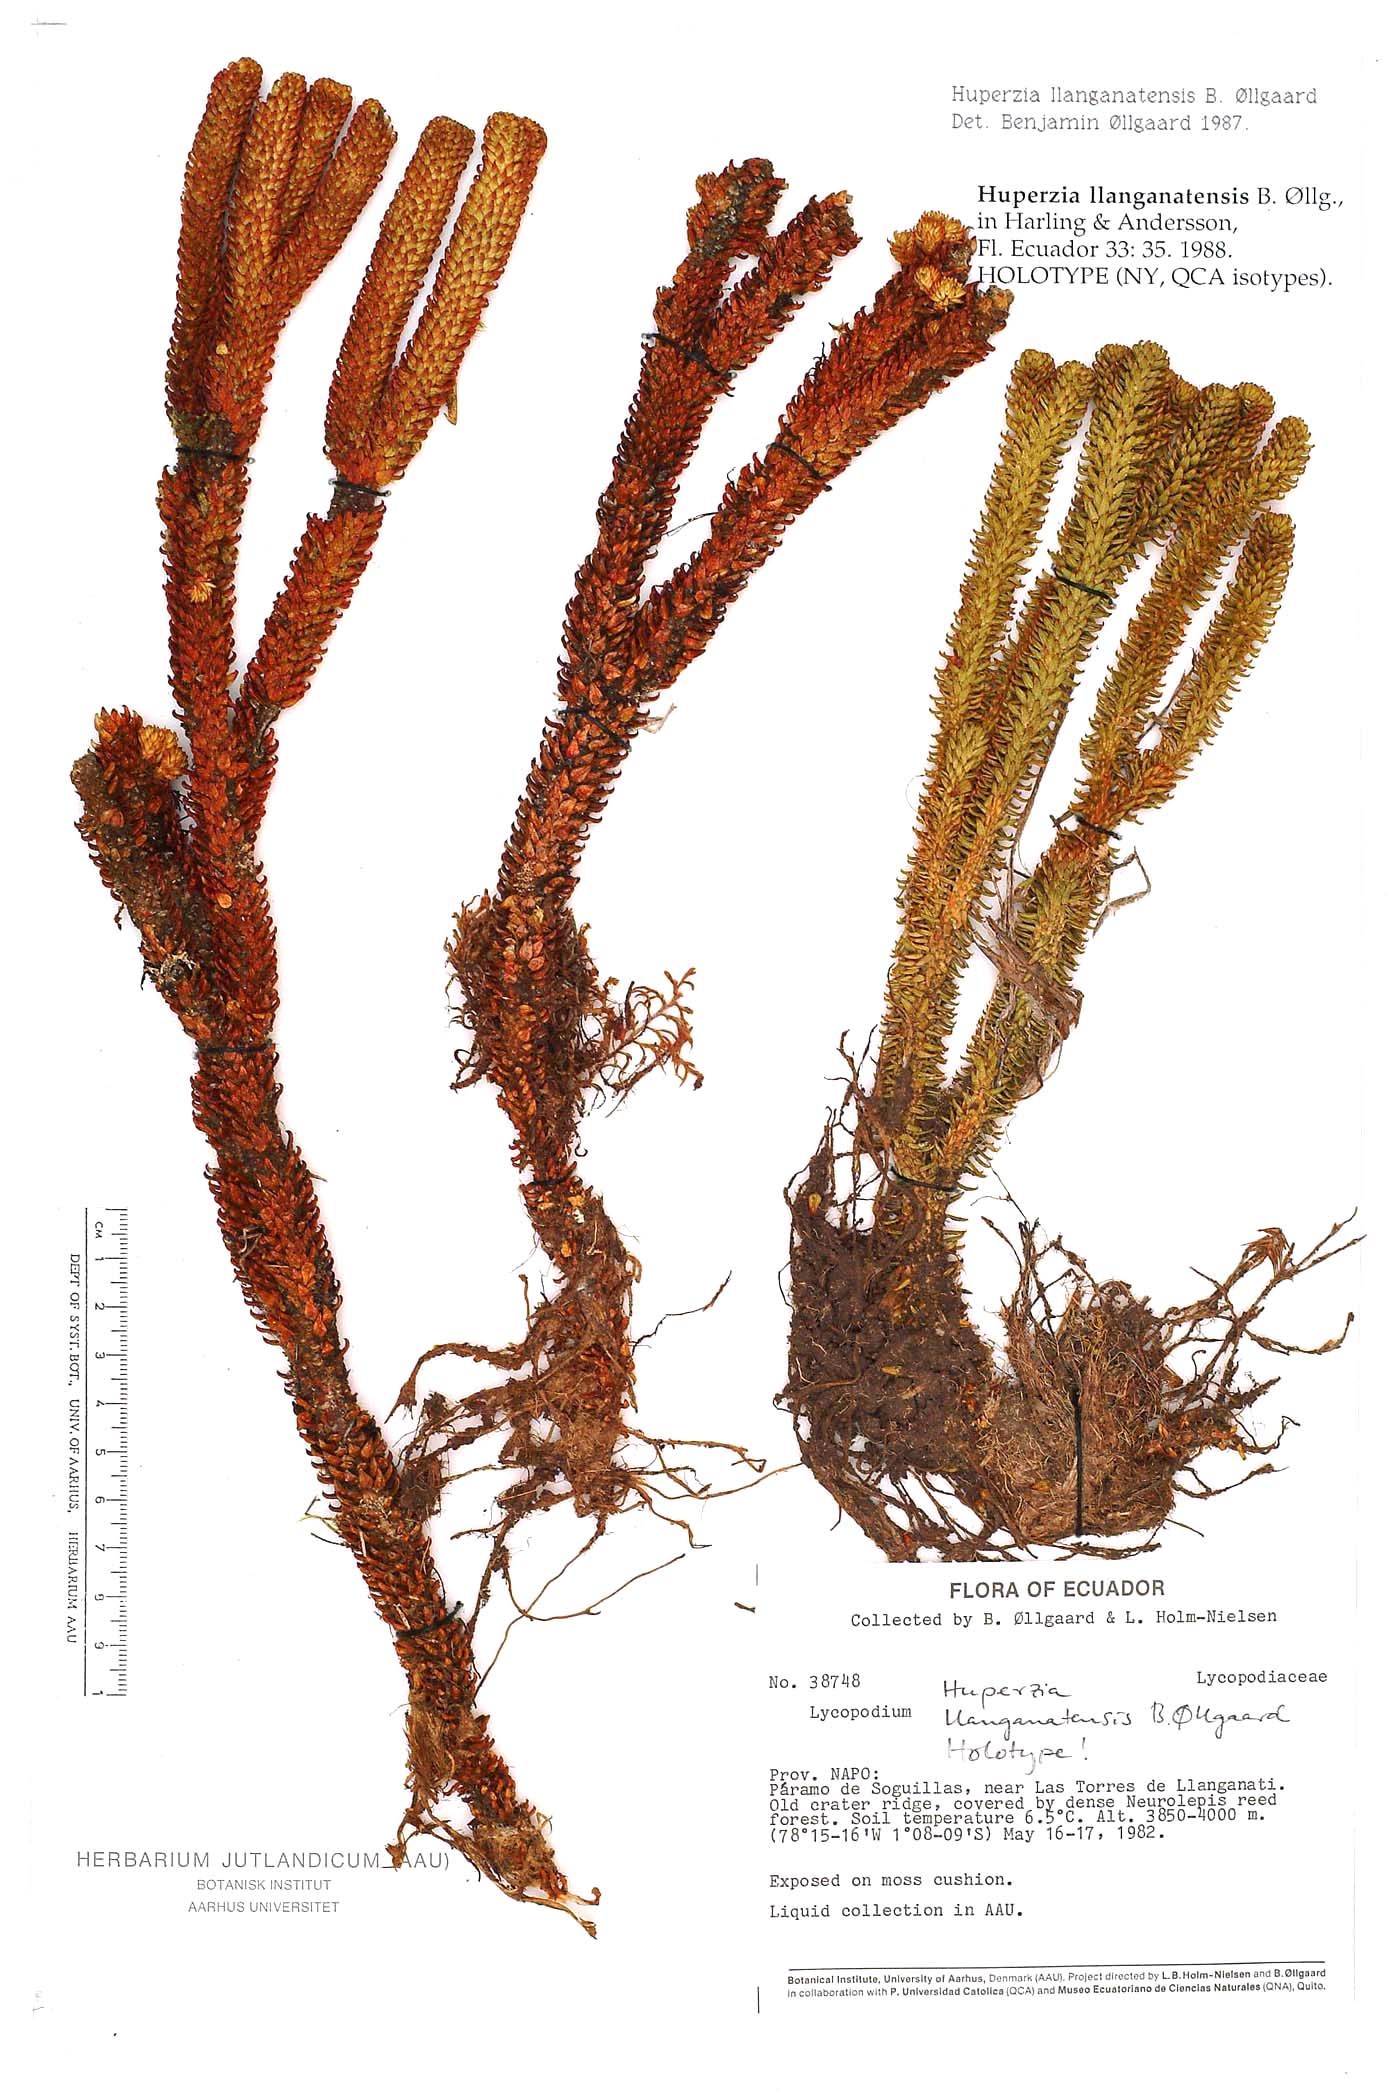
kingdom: Plantae
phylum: Tracheophyta
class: Lycopodiopsida
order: Lycopodiales
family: Lycopodiaceae
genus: Phlegmariurus
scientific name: Phlegmariurus llanganatensis
